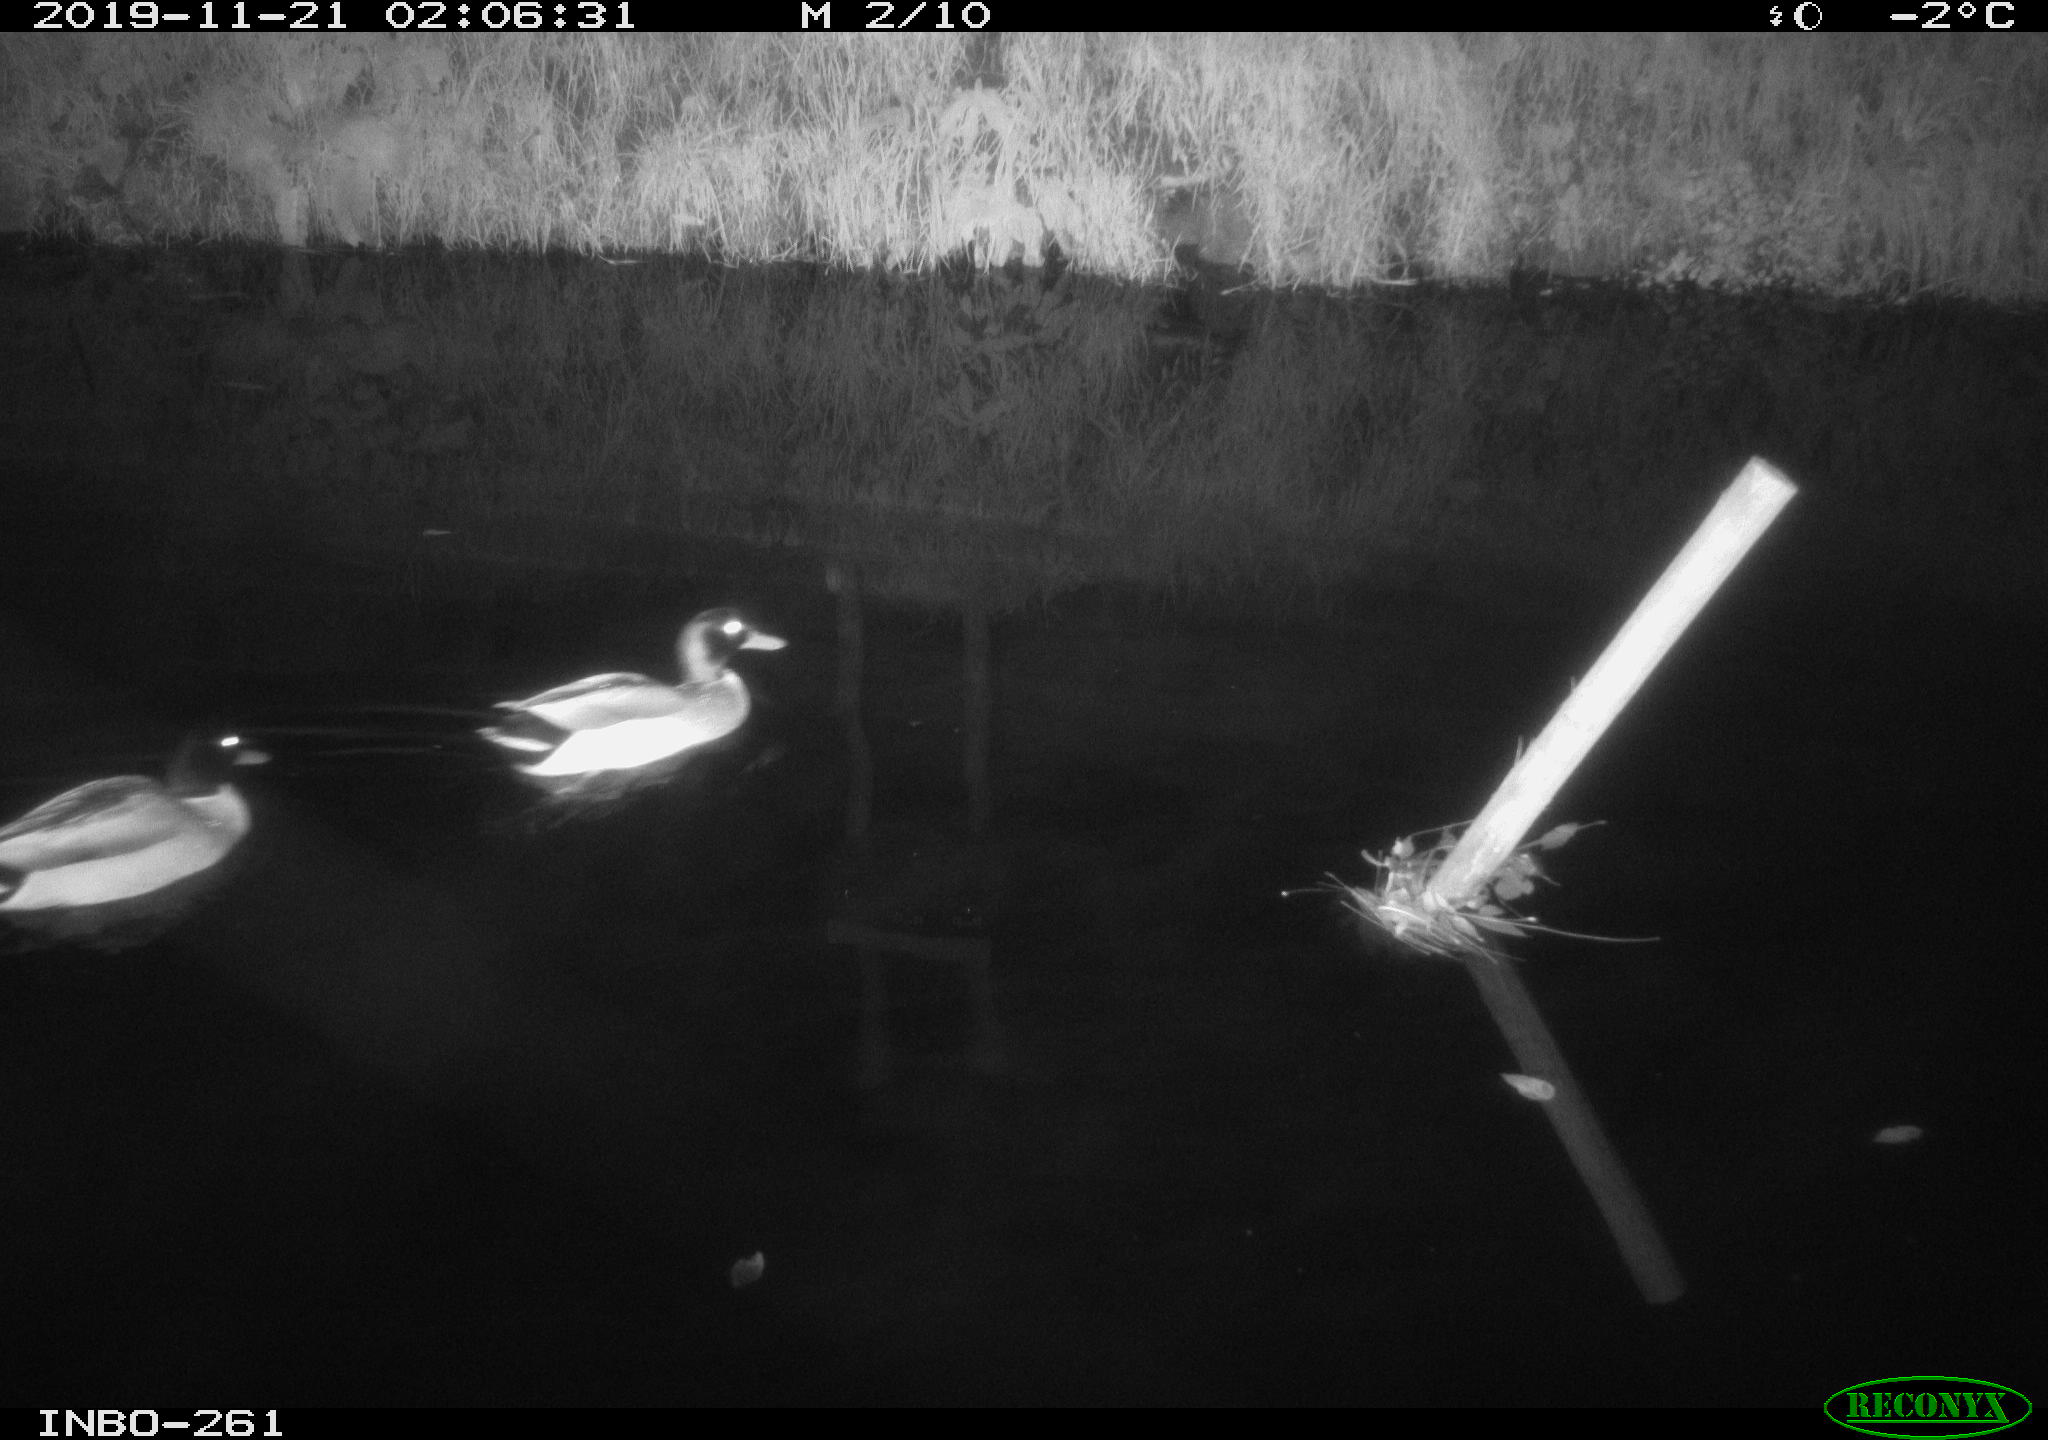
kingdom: Animalia
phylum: Chordata
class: Aves
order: Anseriformes
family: Anatidae
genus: Anas
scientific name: Anas platyrhynchos
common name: Mallard
